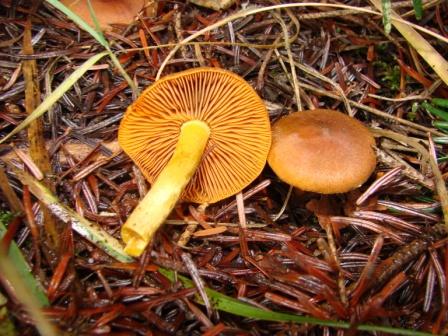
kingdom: Fungi
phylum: Basidiomycota
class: Agaricomycetes
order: Agaricales
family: Cortinariaceae
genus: Cortinarius
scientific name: Cortinarius malicorius
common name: grønkødet slørhat
